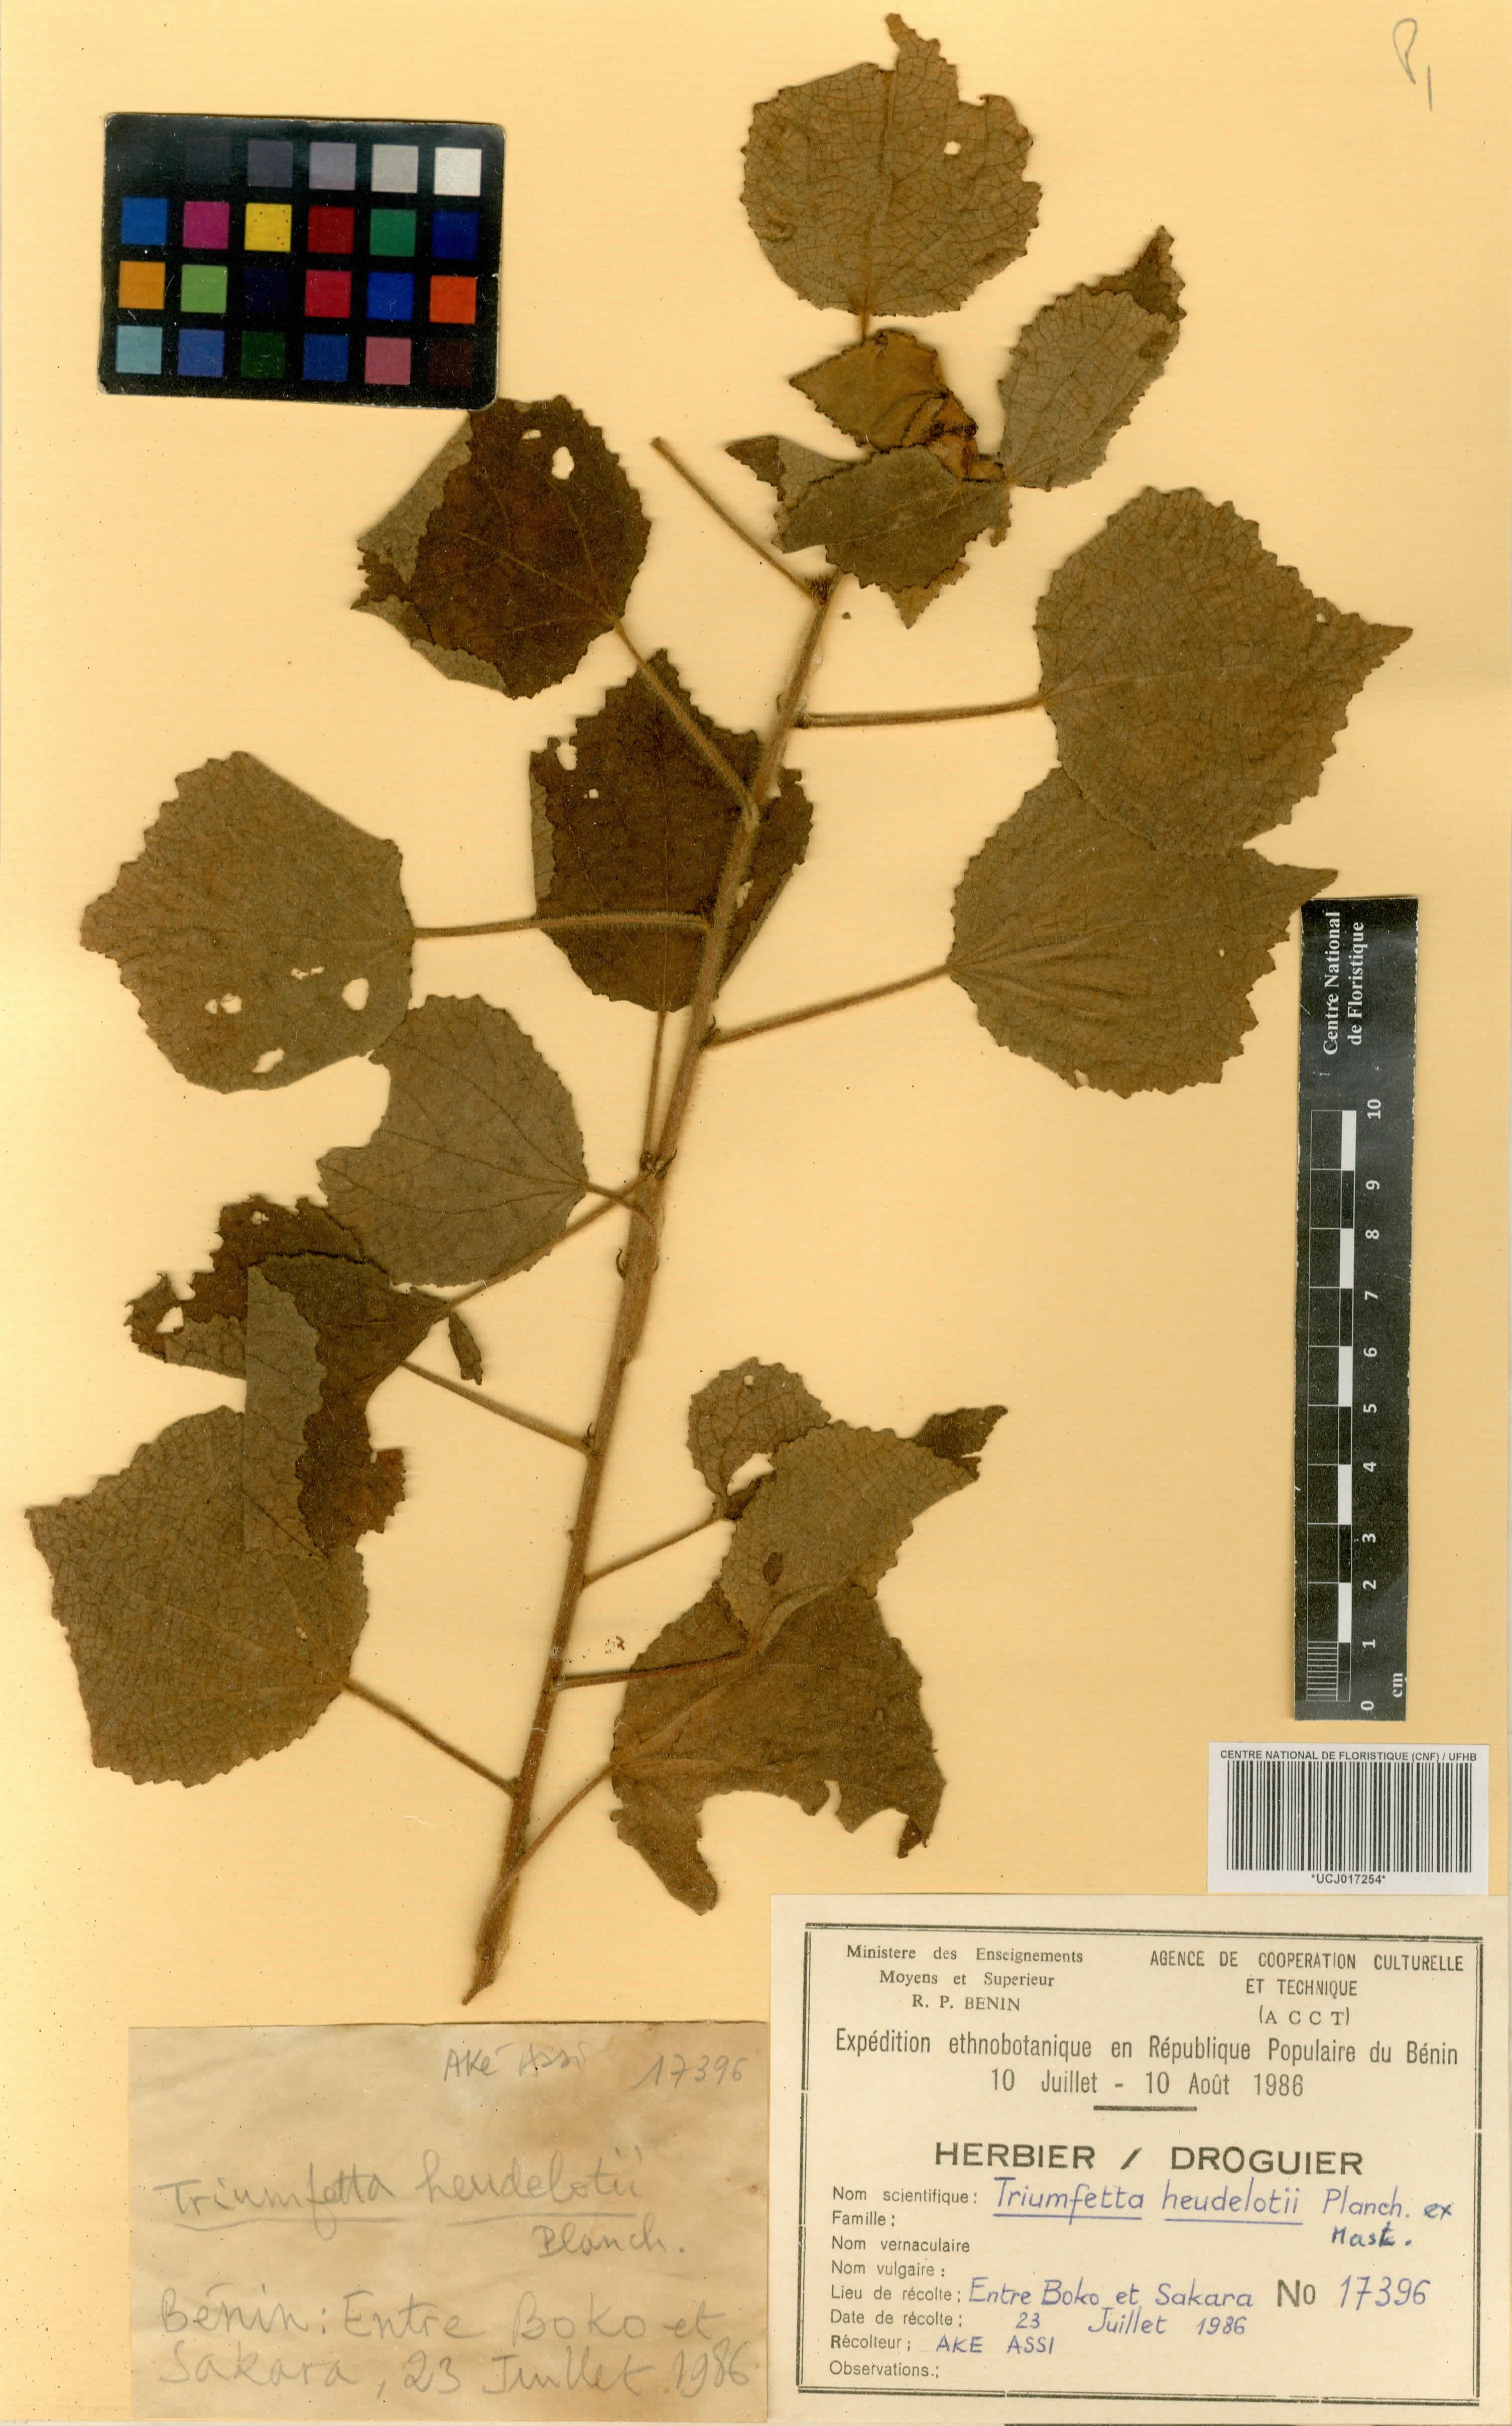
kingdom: Plantae
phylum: Tracheophyta
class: Magnoliopsida
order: Malvales
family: Malvaceae
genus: Triumfetta
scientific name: Triumfetta heudelotii
